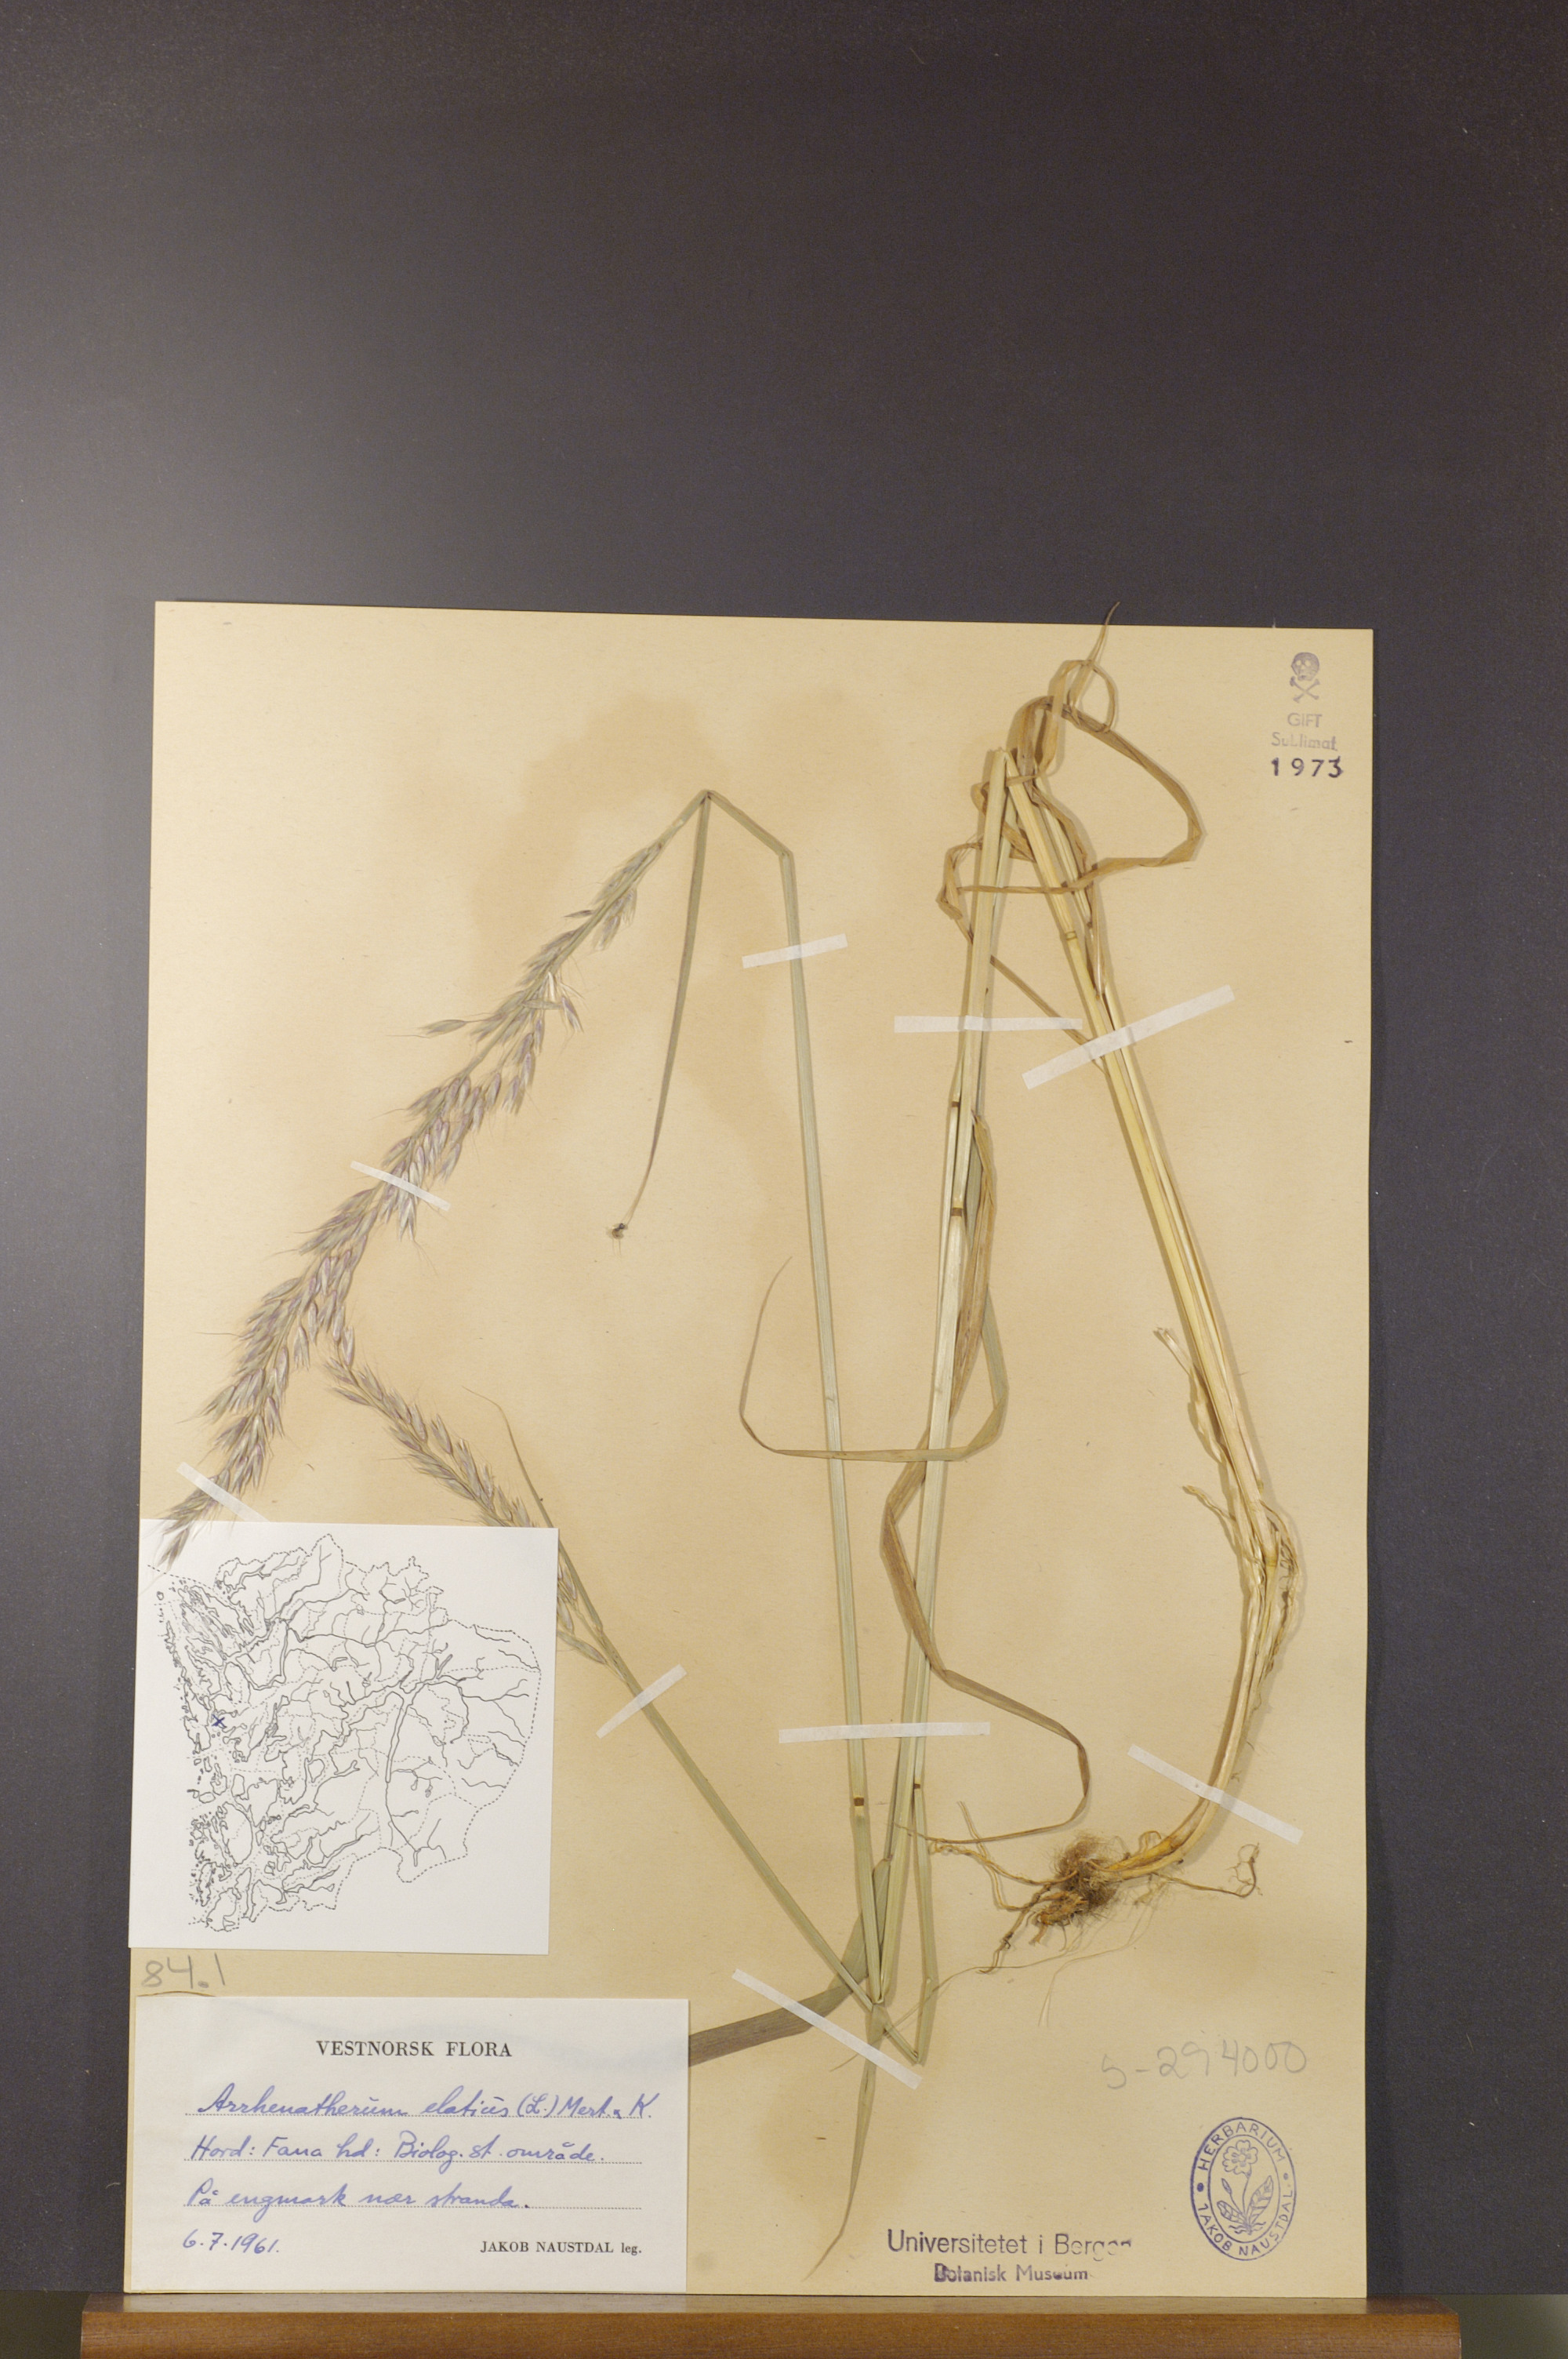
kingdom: Plantae
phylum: Tracheophyta
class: Liliopsida
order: Poales
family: Poaceae
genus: Arrhenatherum
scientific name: Arrhenatherum elatius
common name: Tall oatgrass
